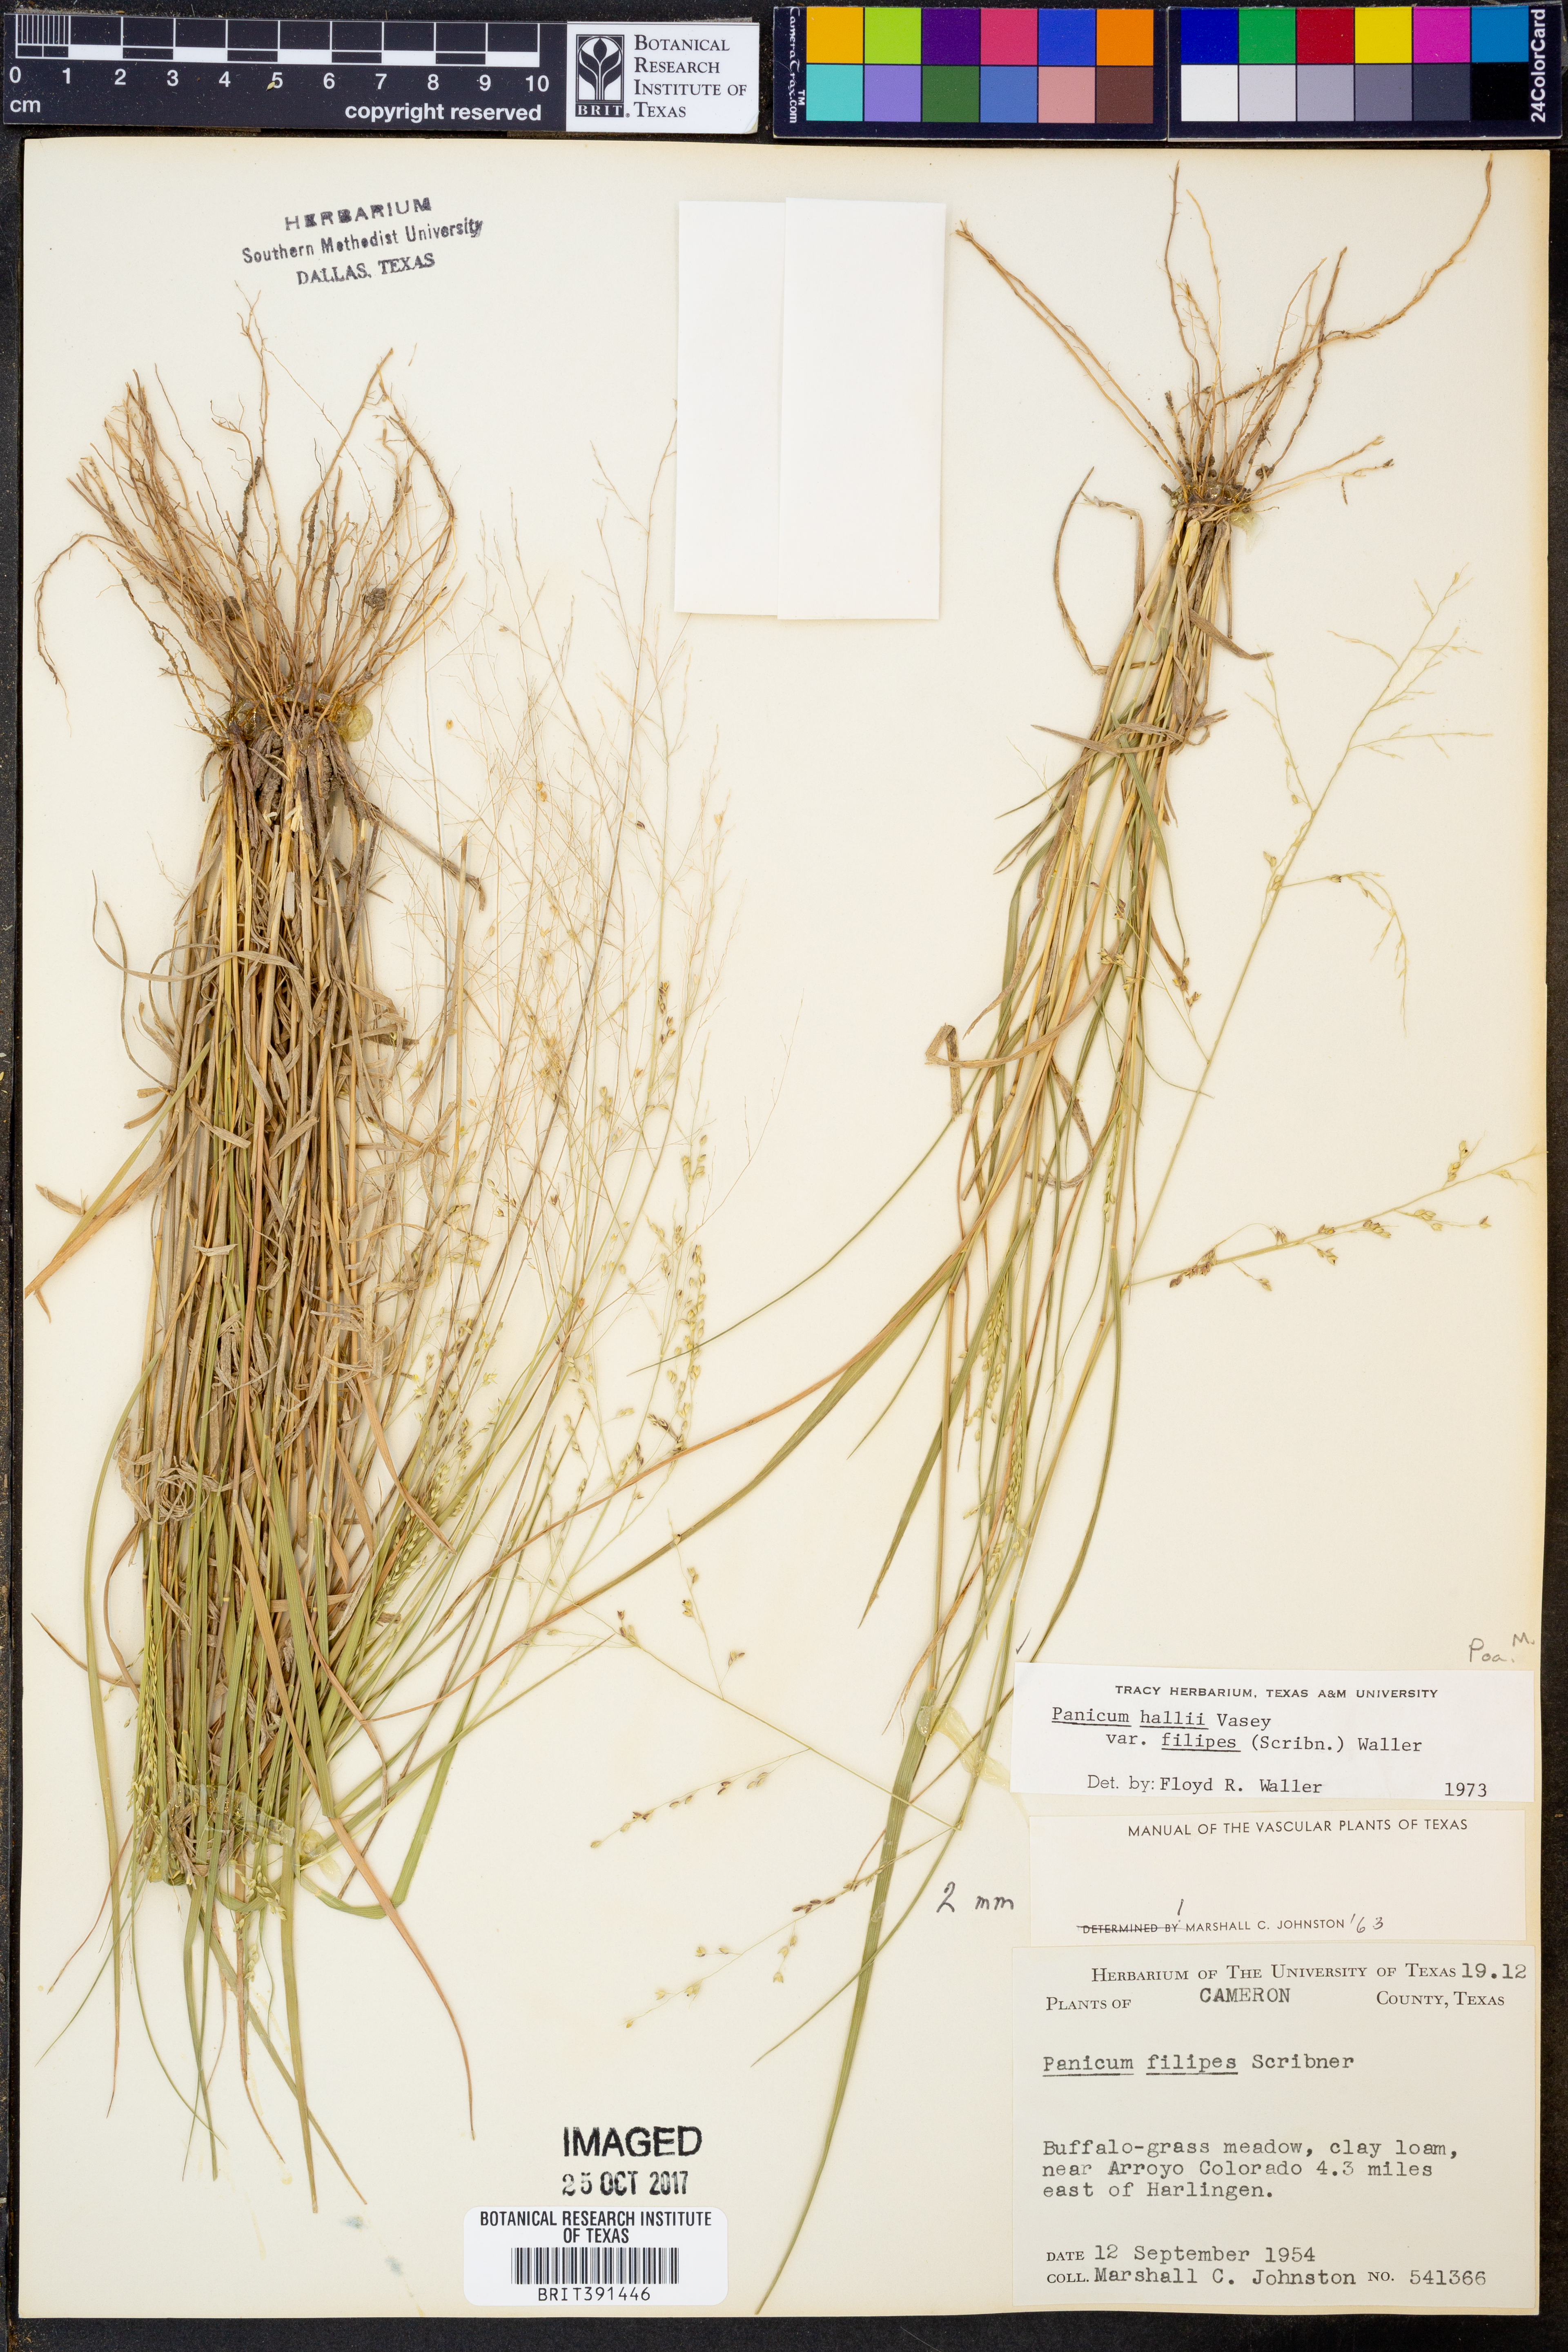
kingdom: Plantae
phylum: Tracheophyta
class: Liliopsida
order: Poales
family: Poaceae
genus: Panicum
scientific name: Panicum hallii
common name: Hall's witchgrass
